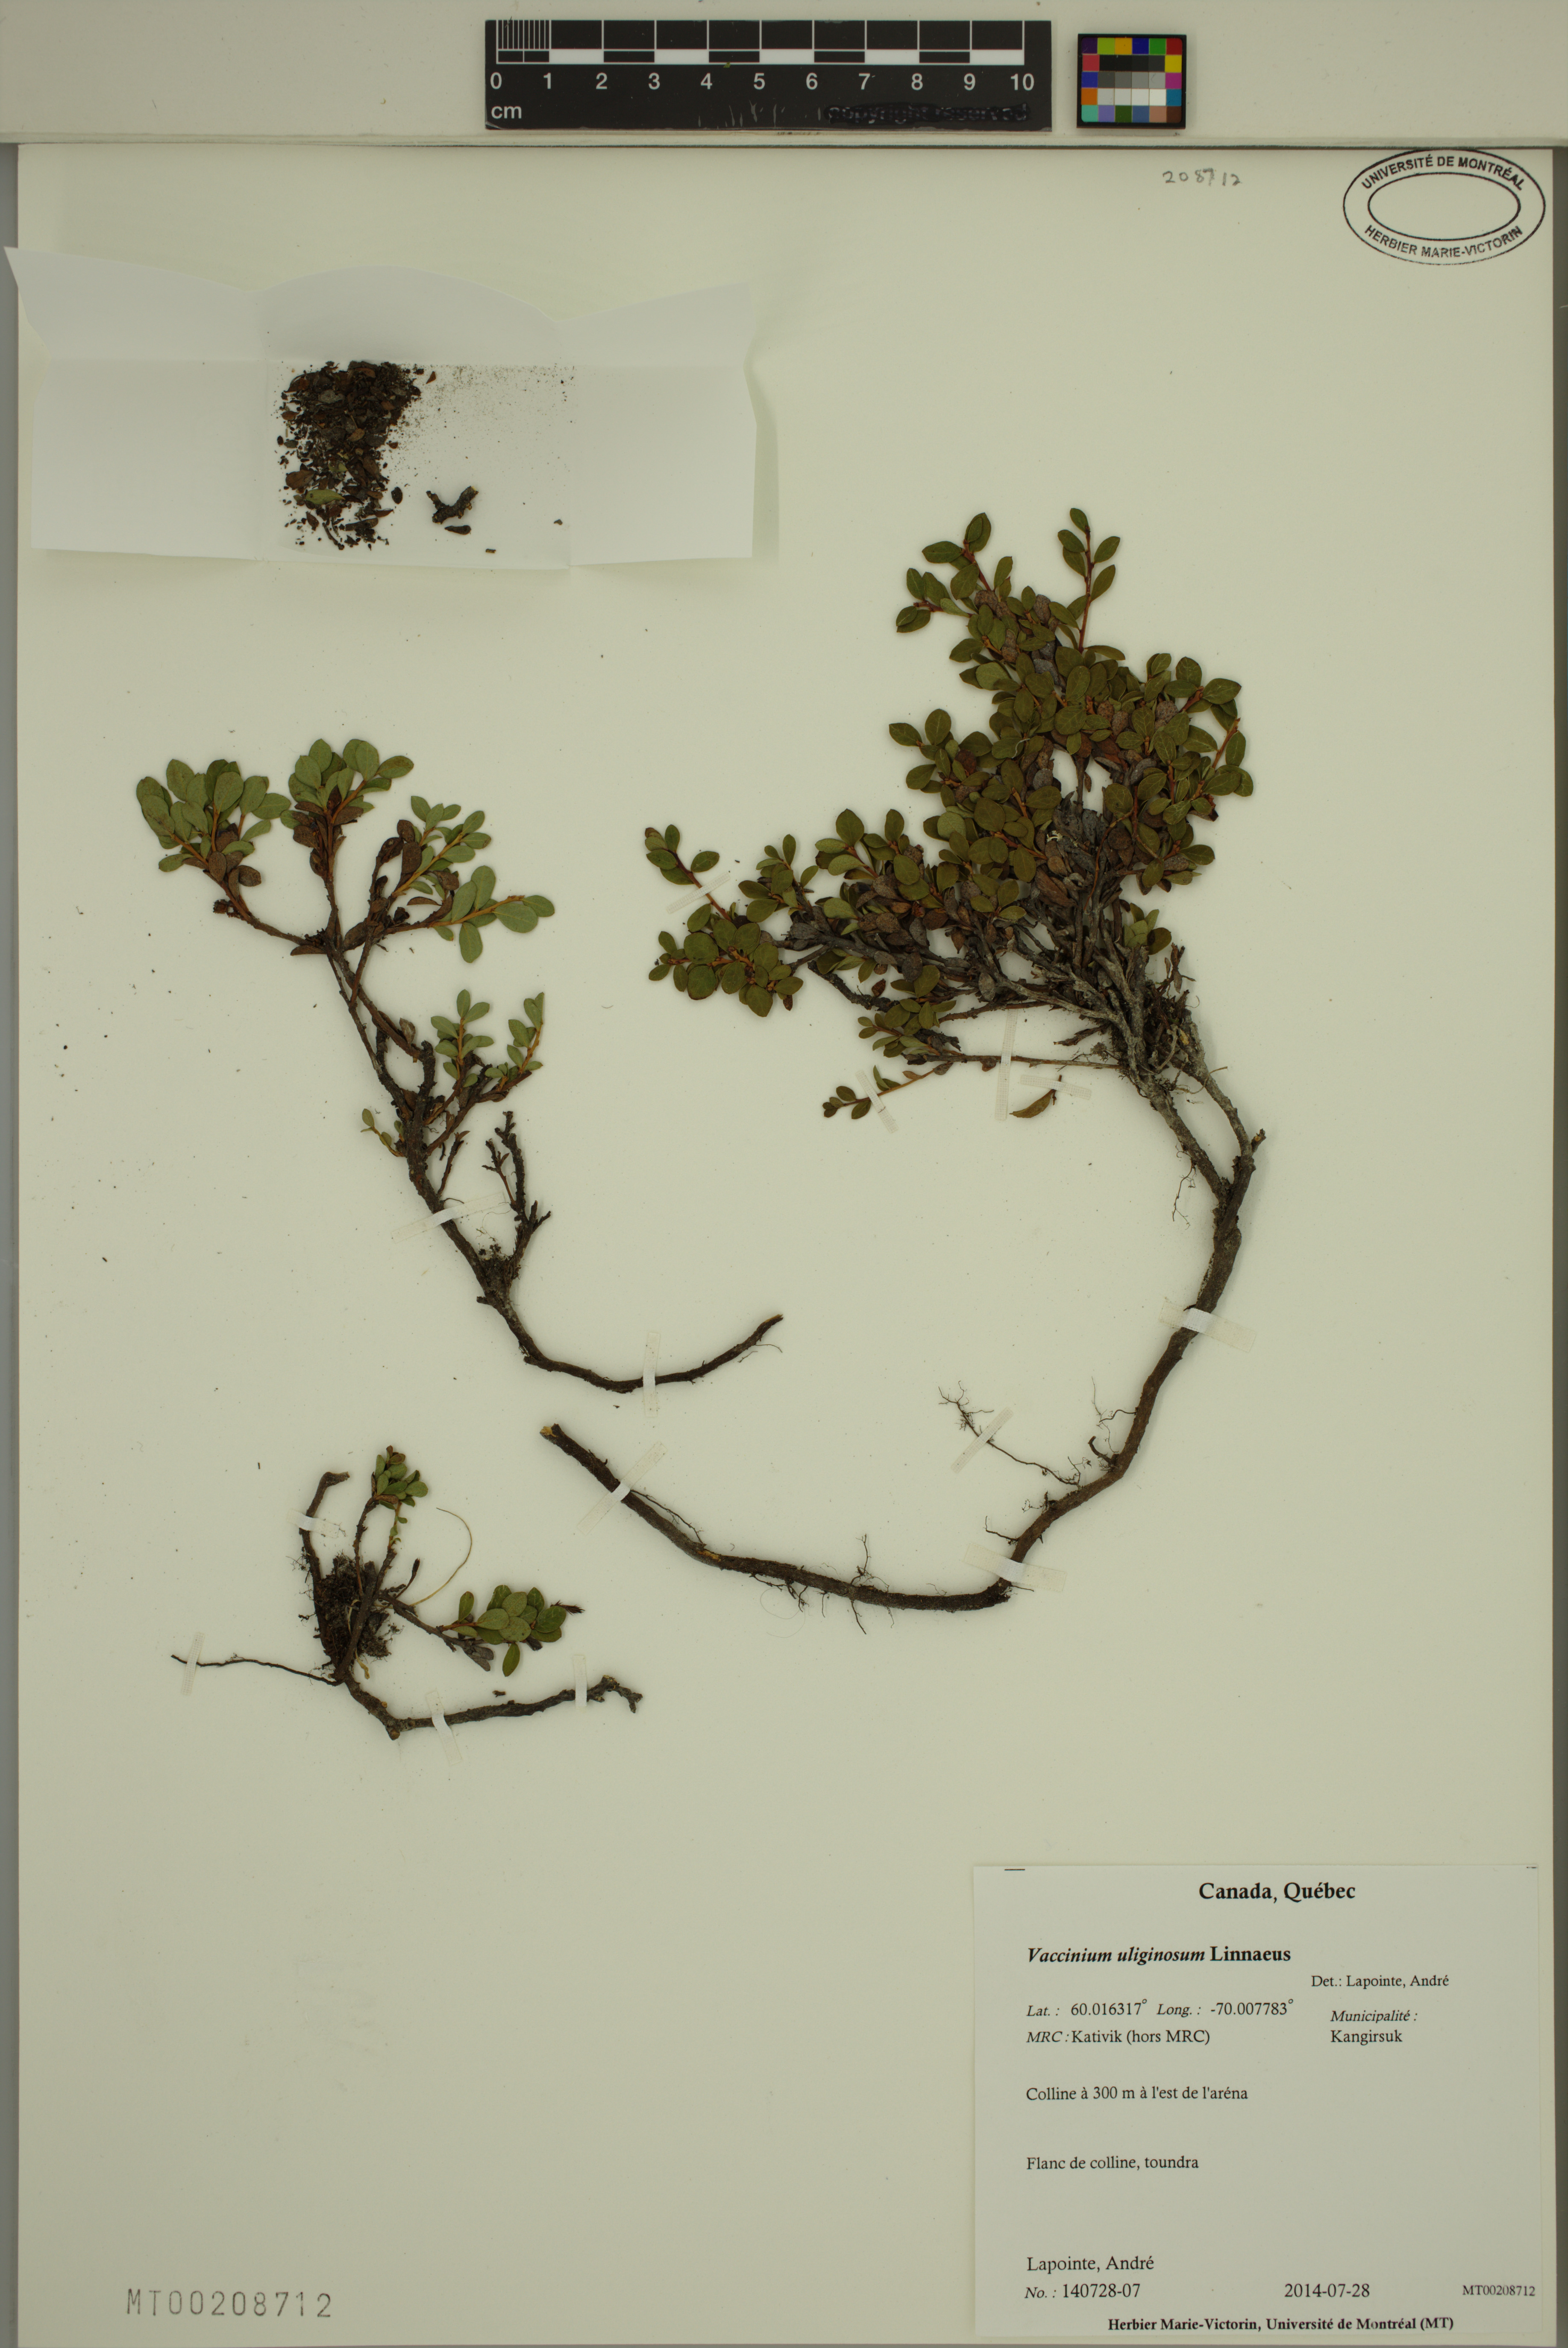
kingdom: Plantae
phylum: Tracheophyta
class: Magnoliopsida
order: Ericales
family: Ericaceae
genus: Vaccinium
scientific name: Vaccinium uliginosum
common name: Bog bilberry
